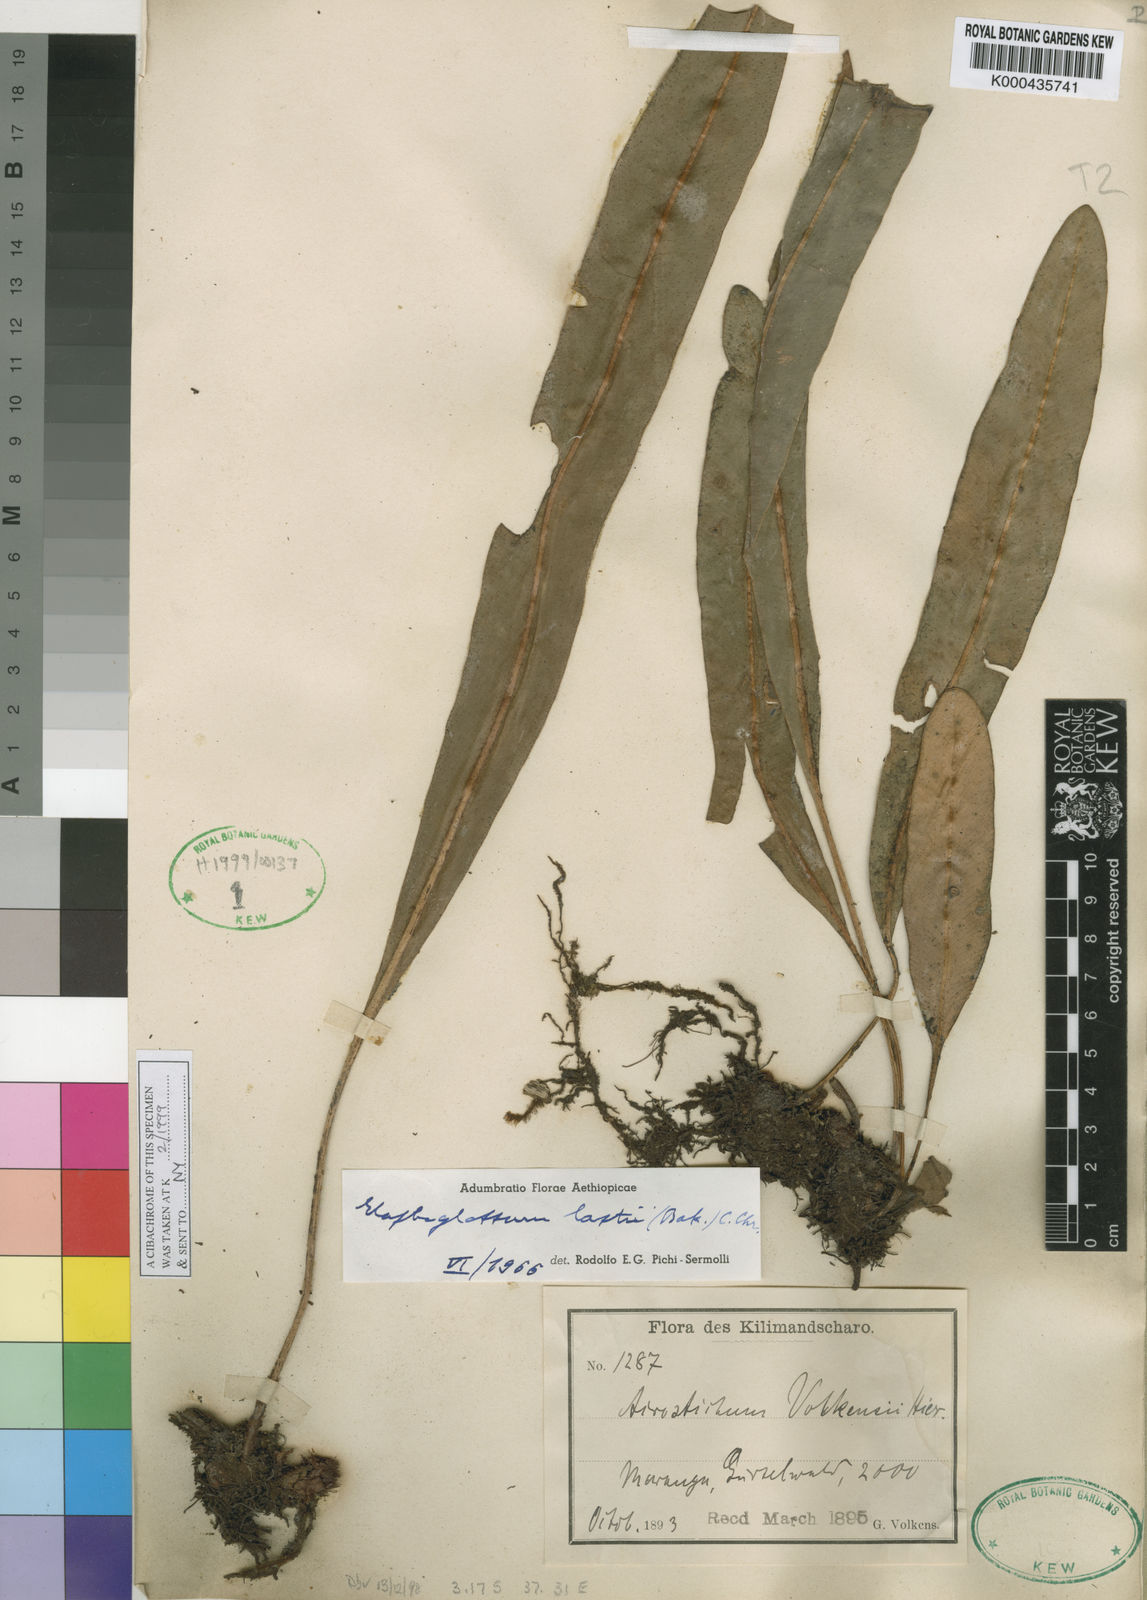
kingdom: Plantae
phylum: Tracheophyta
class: Polypodiopsida
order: Polypodiales
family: Dryopteridaceae
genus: Elaphoglossum
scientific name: Elaphoglossum lastii
